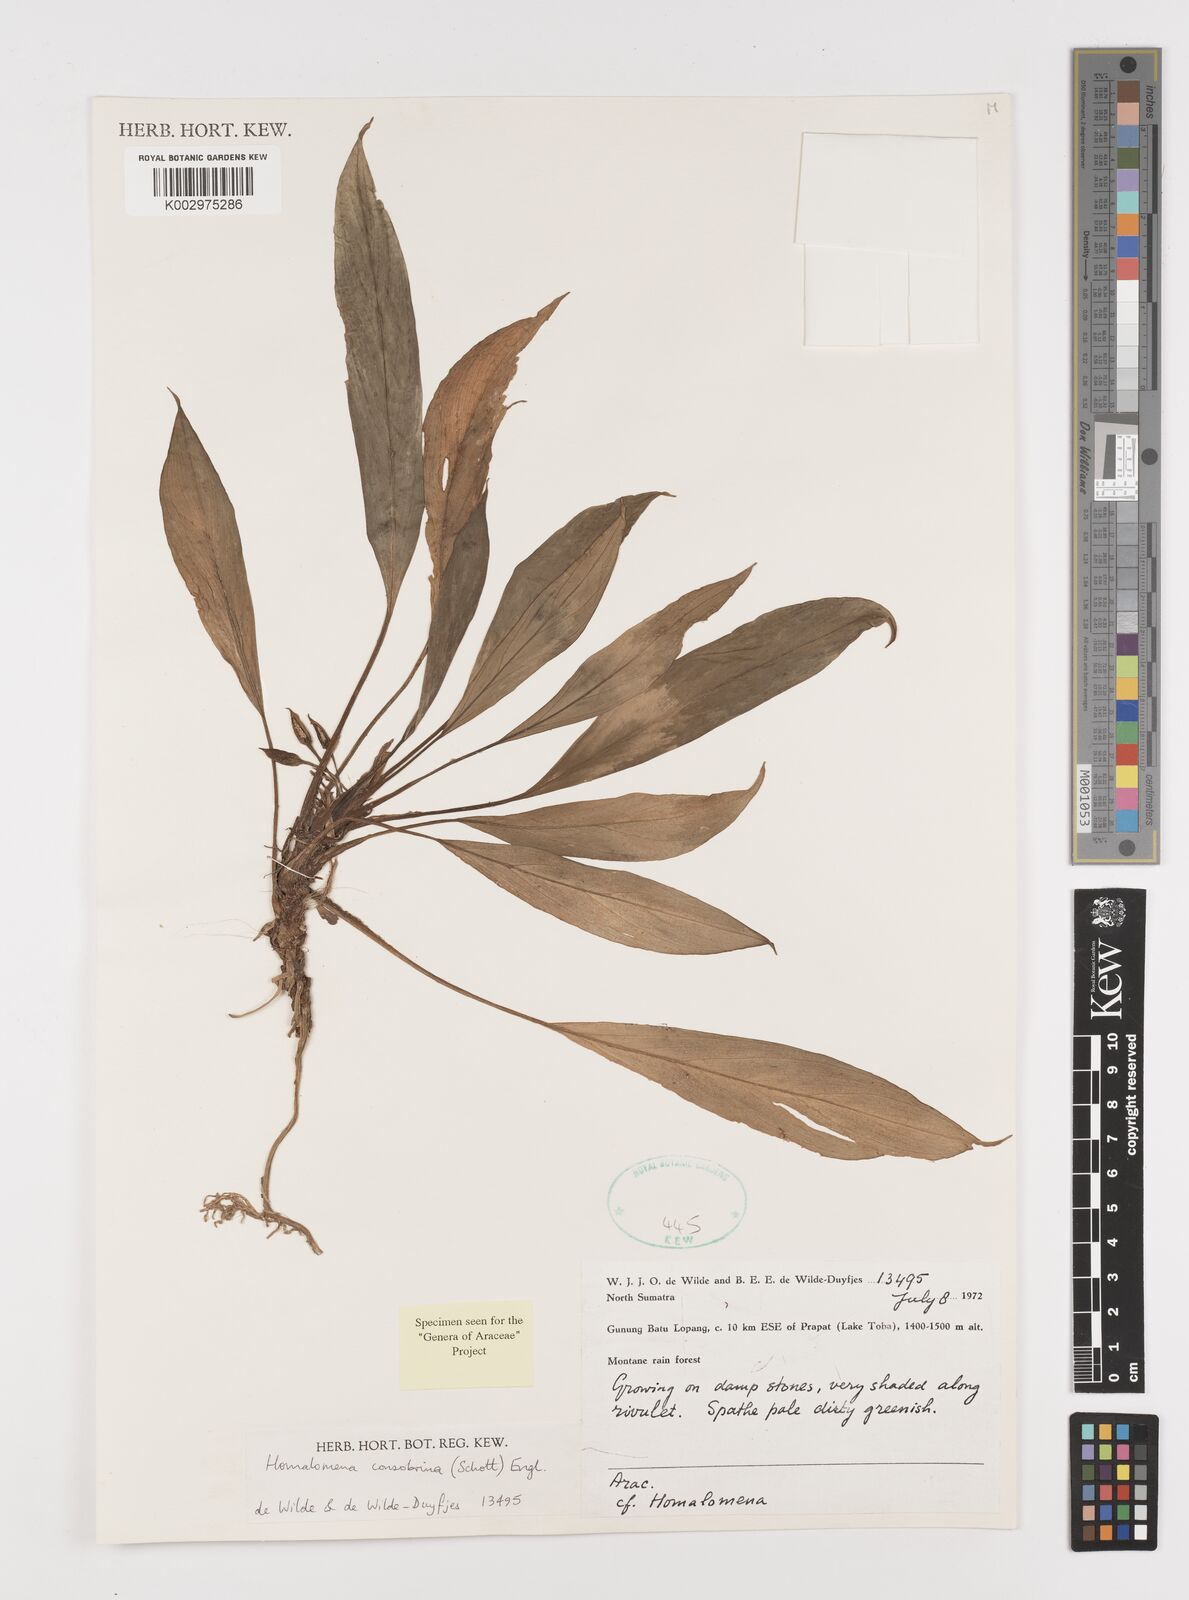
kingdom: Plantae
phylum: Tracheophyta
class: Liliopsida
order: Alismatales
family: Araceae
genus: Homalomena
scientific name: Homalomena consobrina
